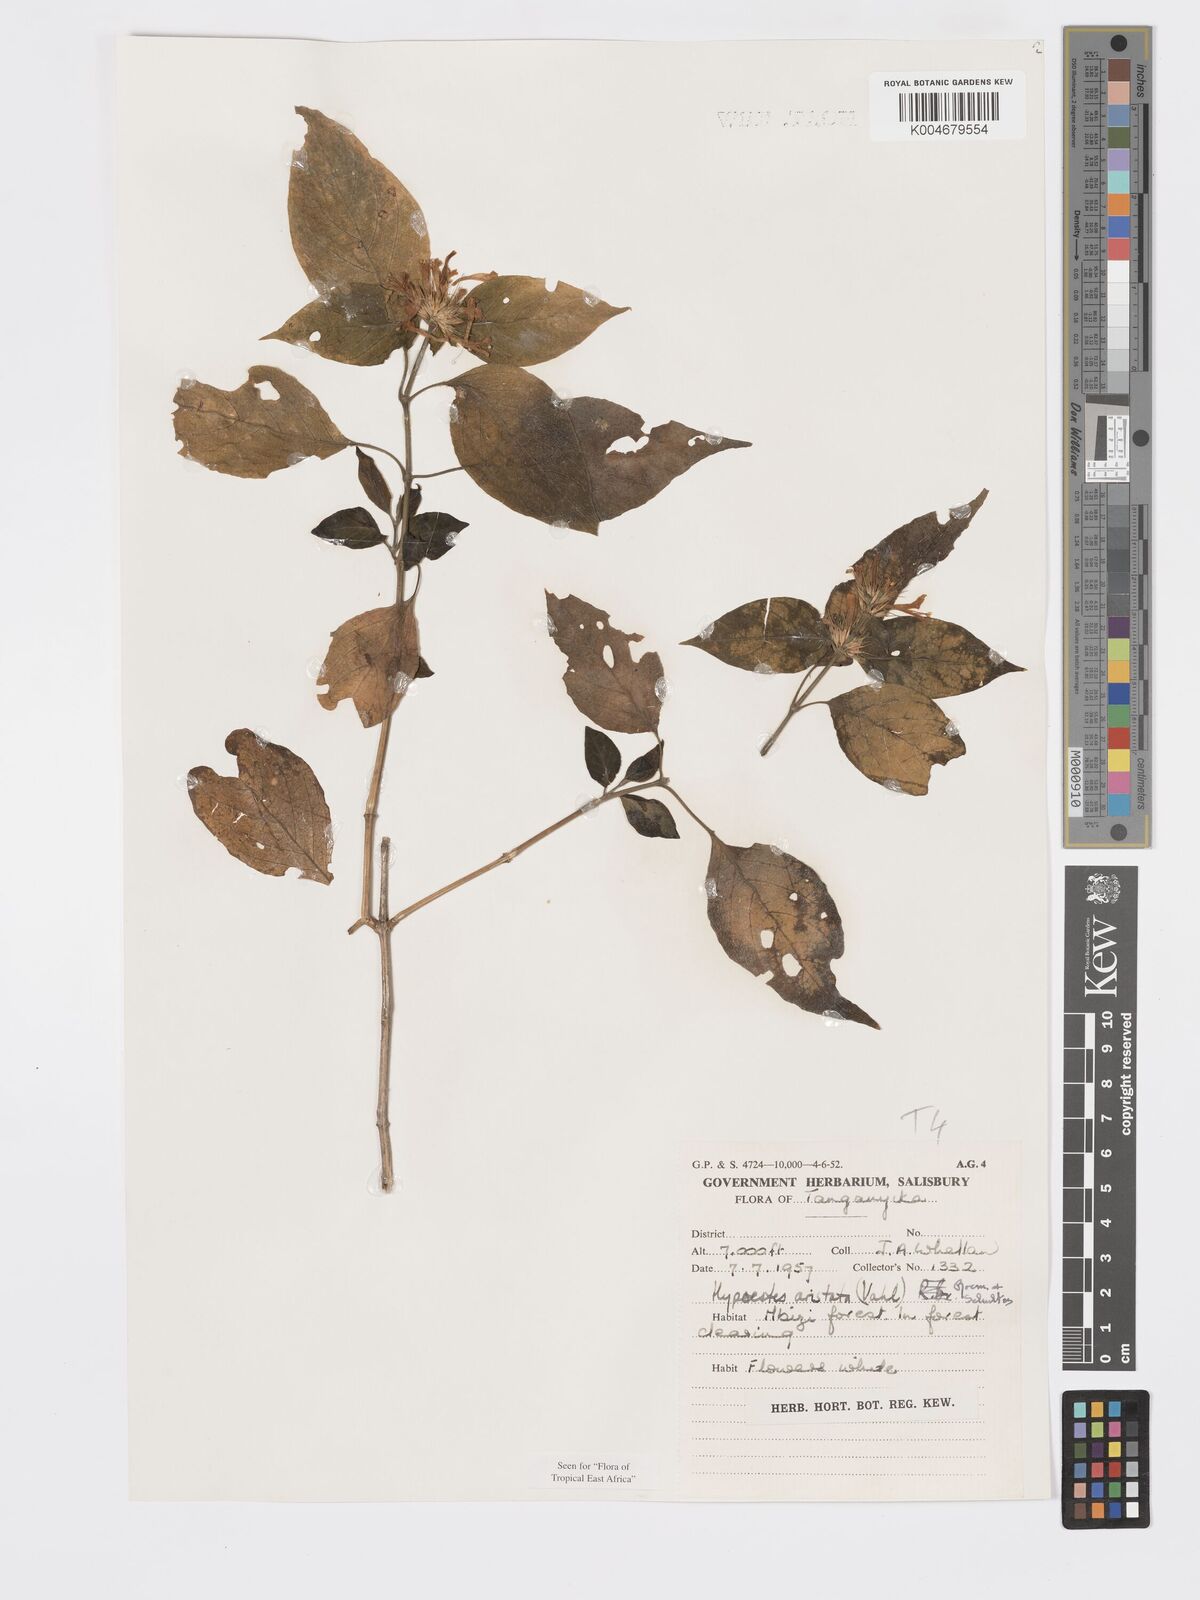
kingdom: Plantae
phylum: Tracheophyta
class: Magnoliopsida
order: Lamiales
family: Acanthaceae
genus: Hypoestes
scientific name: Hypoestes
